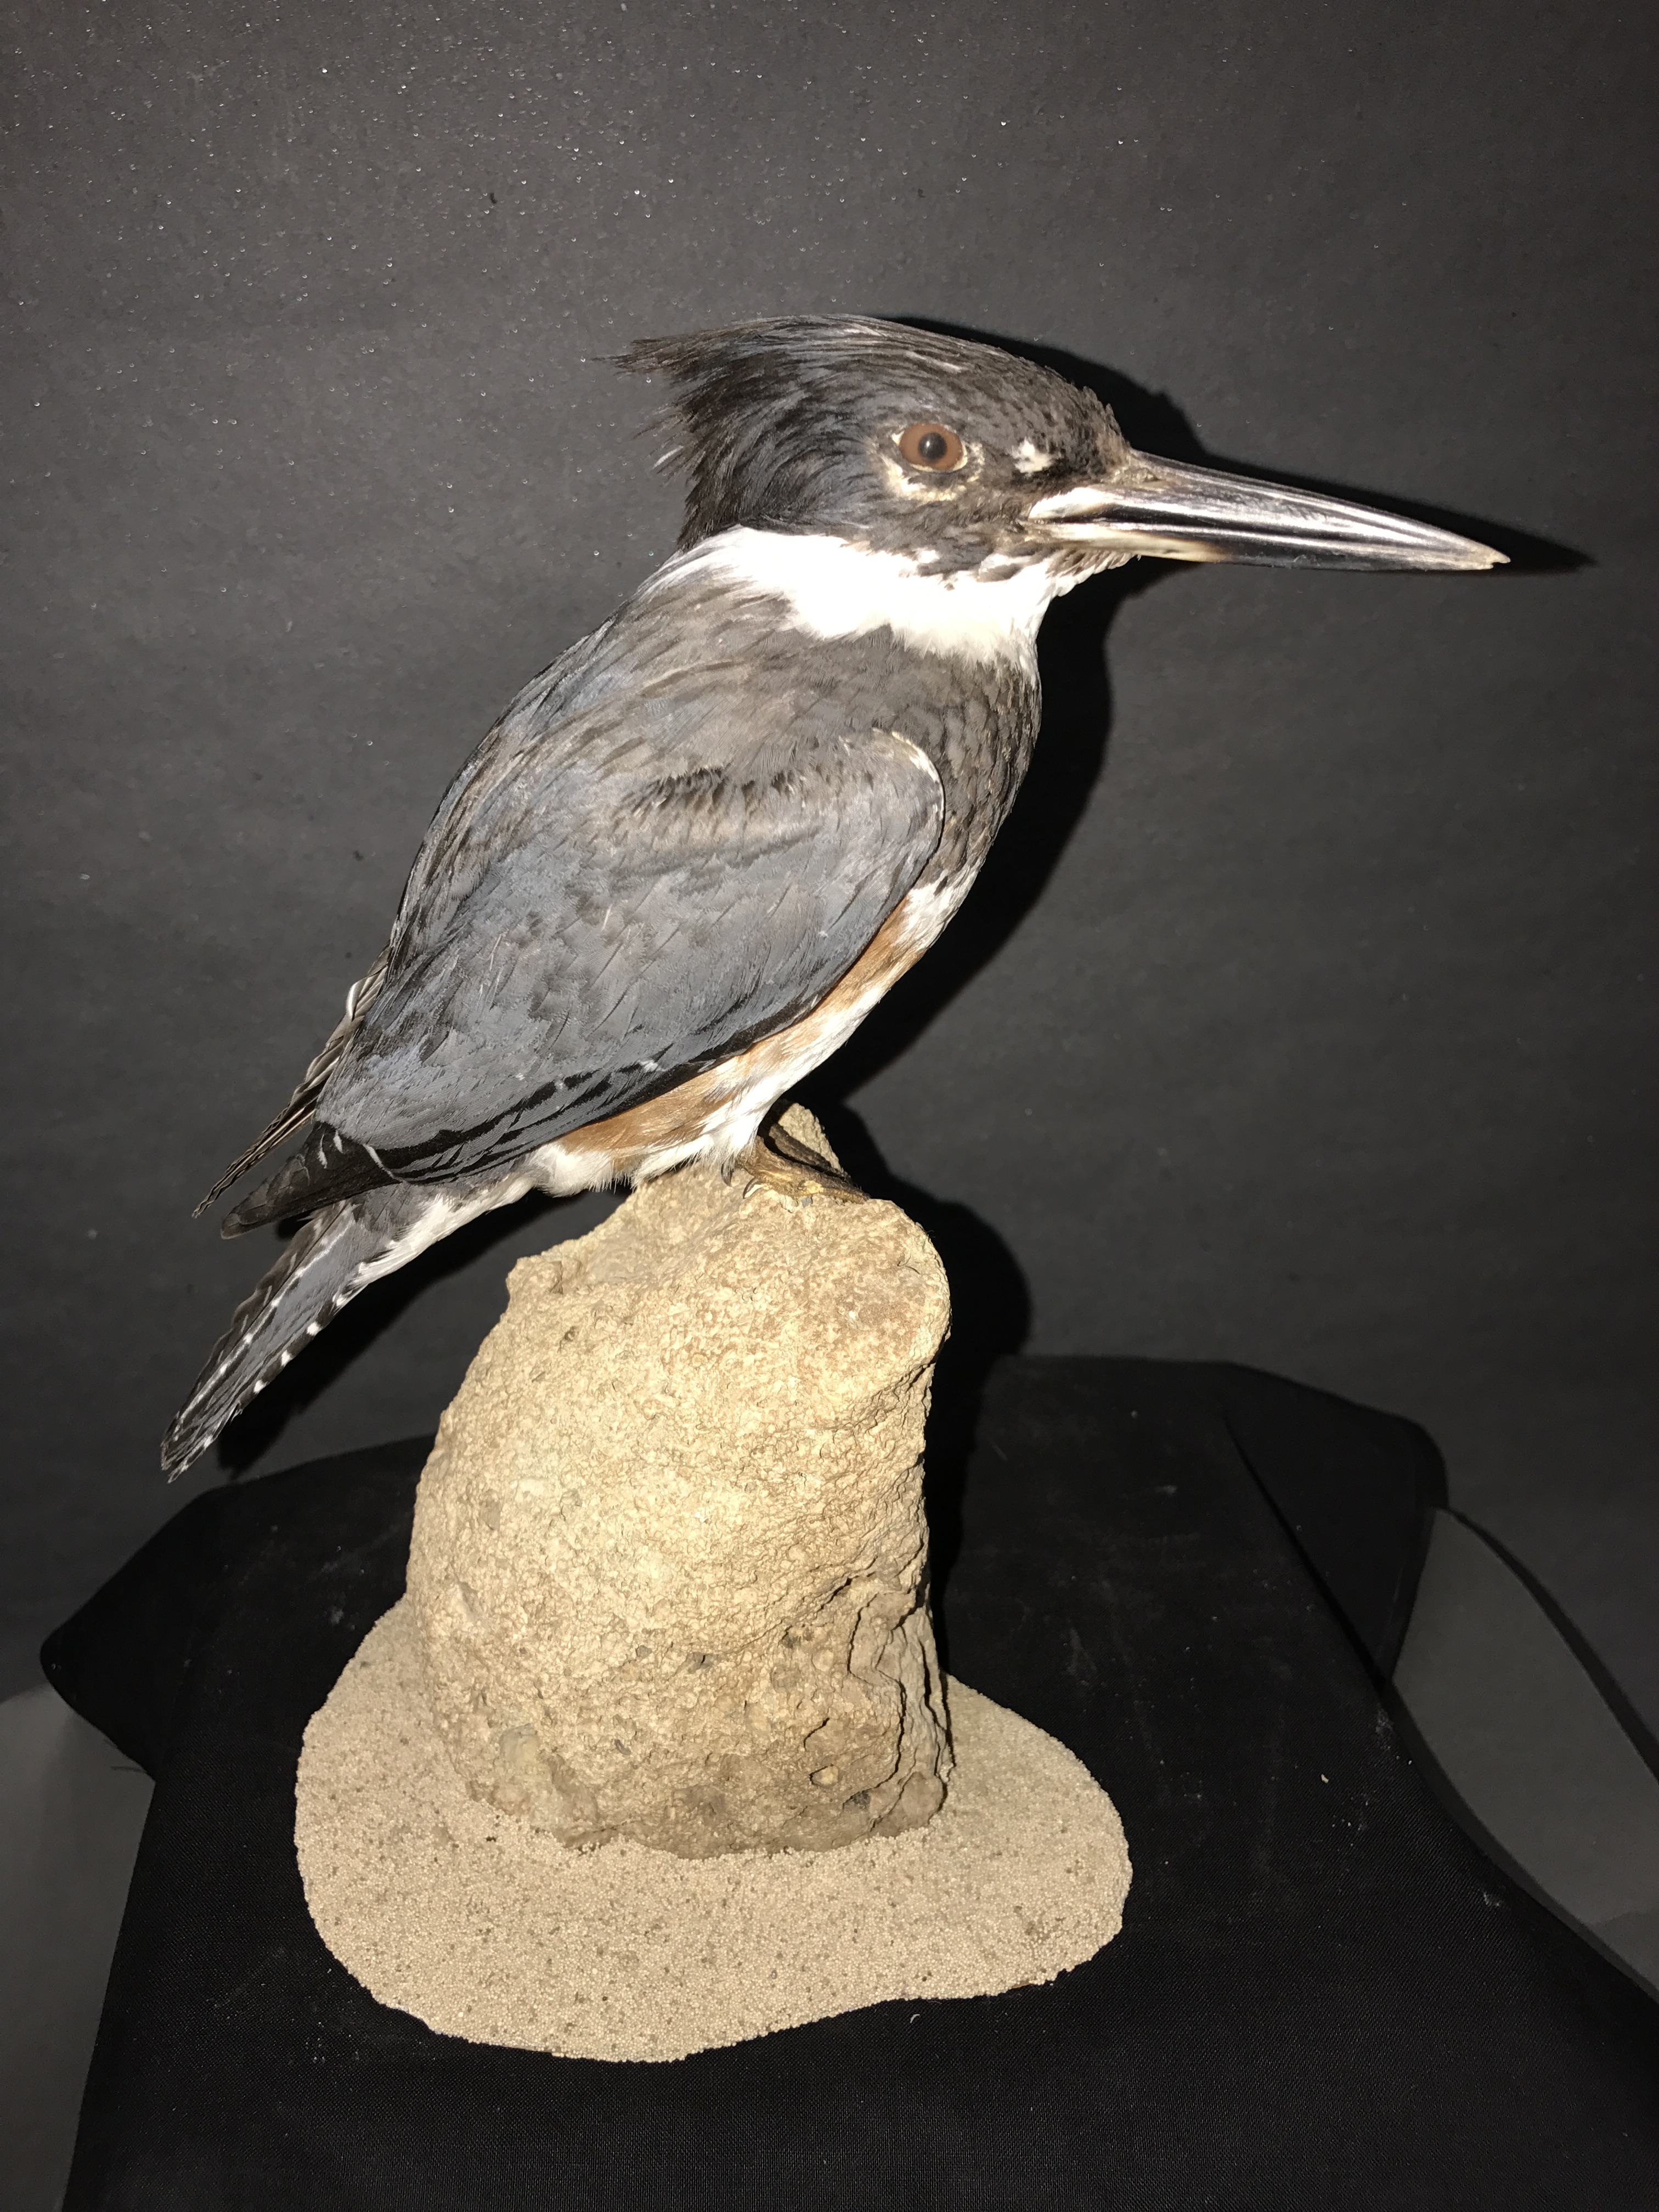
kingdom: Animalia
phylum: Chordata
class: Aves
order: Coraciiformes
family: Alcedinidae
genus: Megaceryle
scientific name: Megaceryle alcyon
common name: Belted kingfisher
